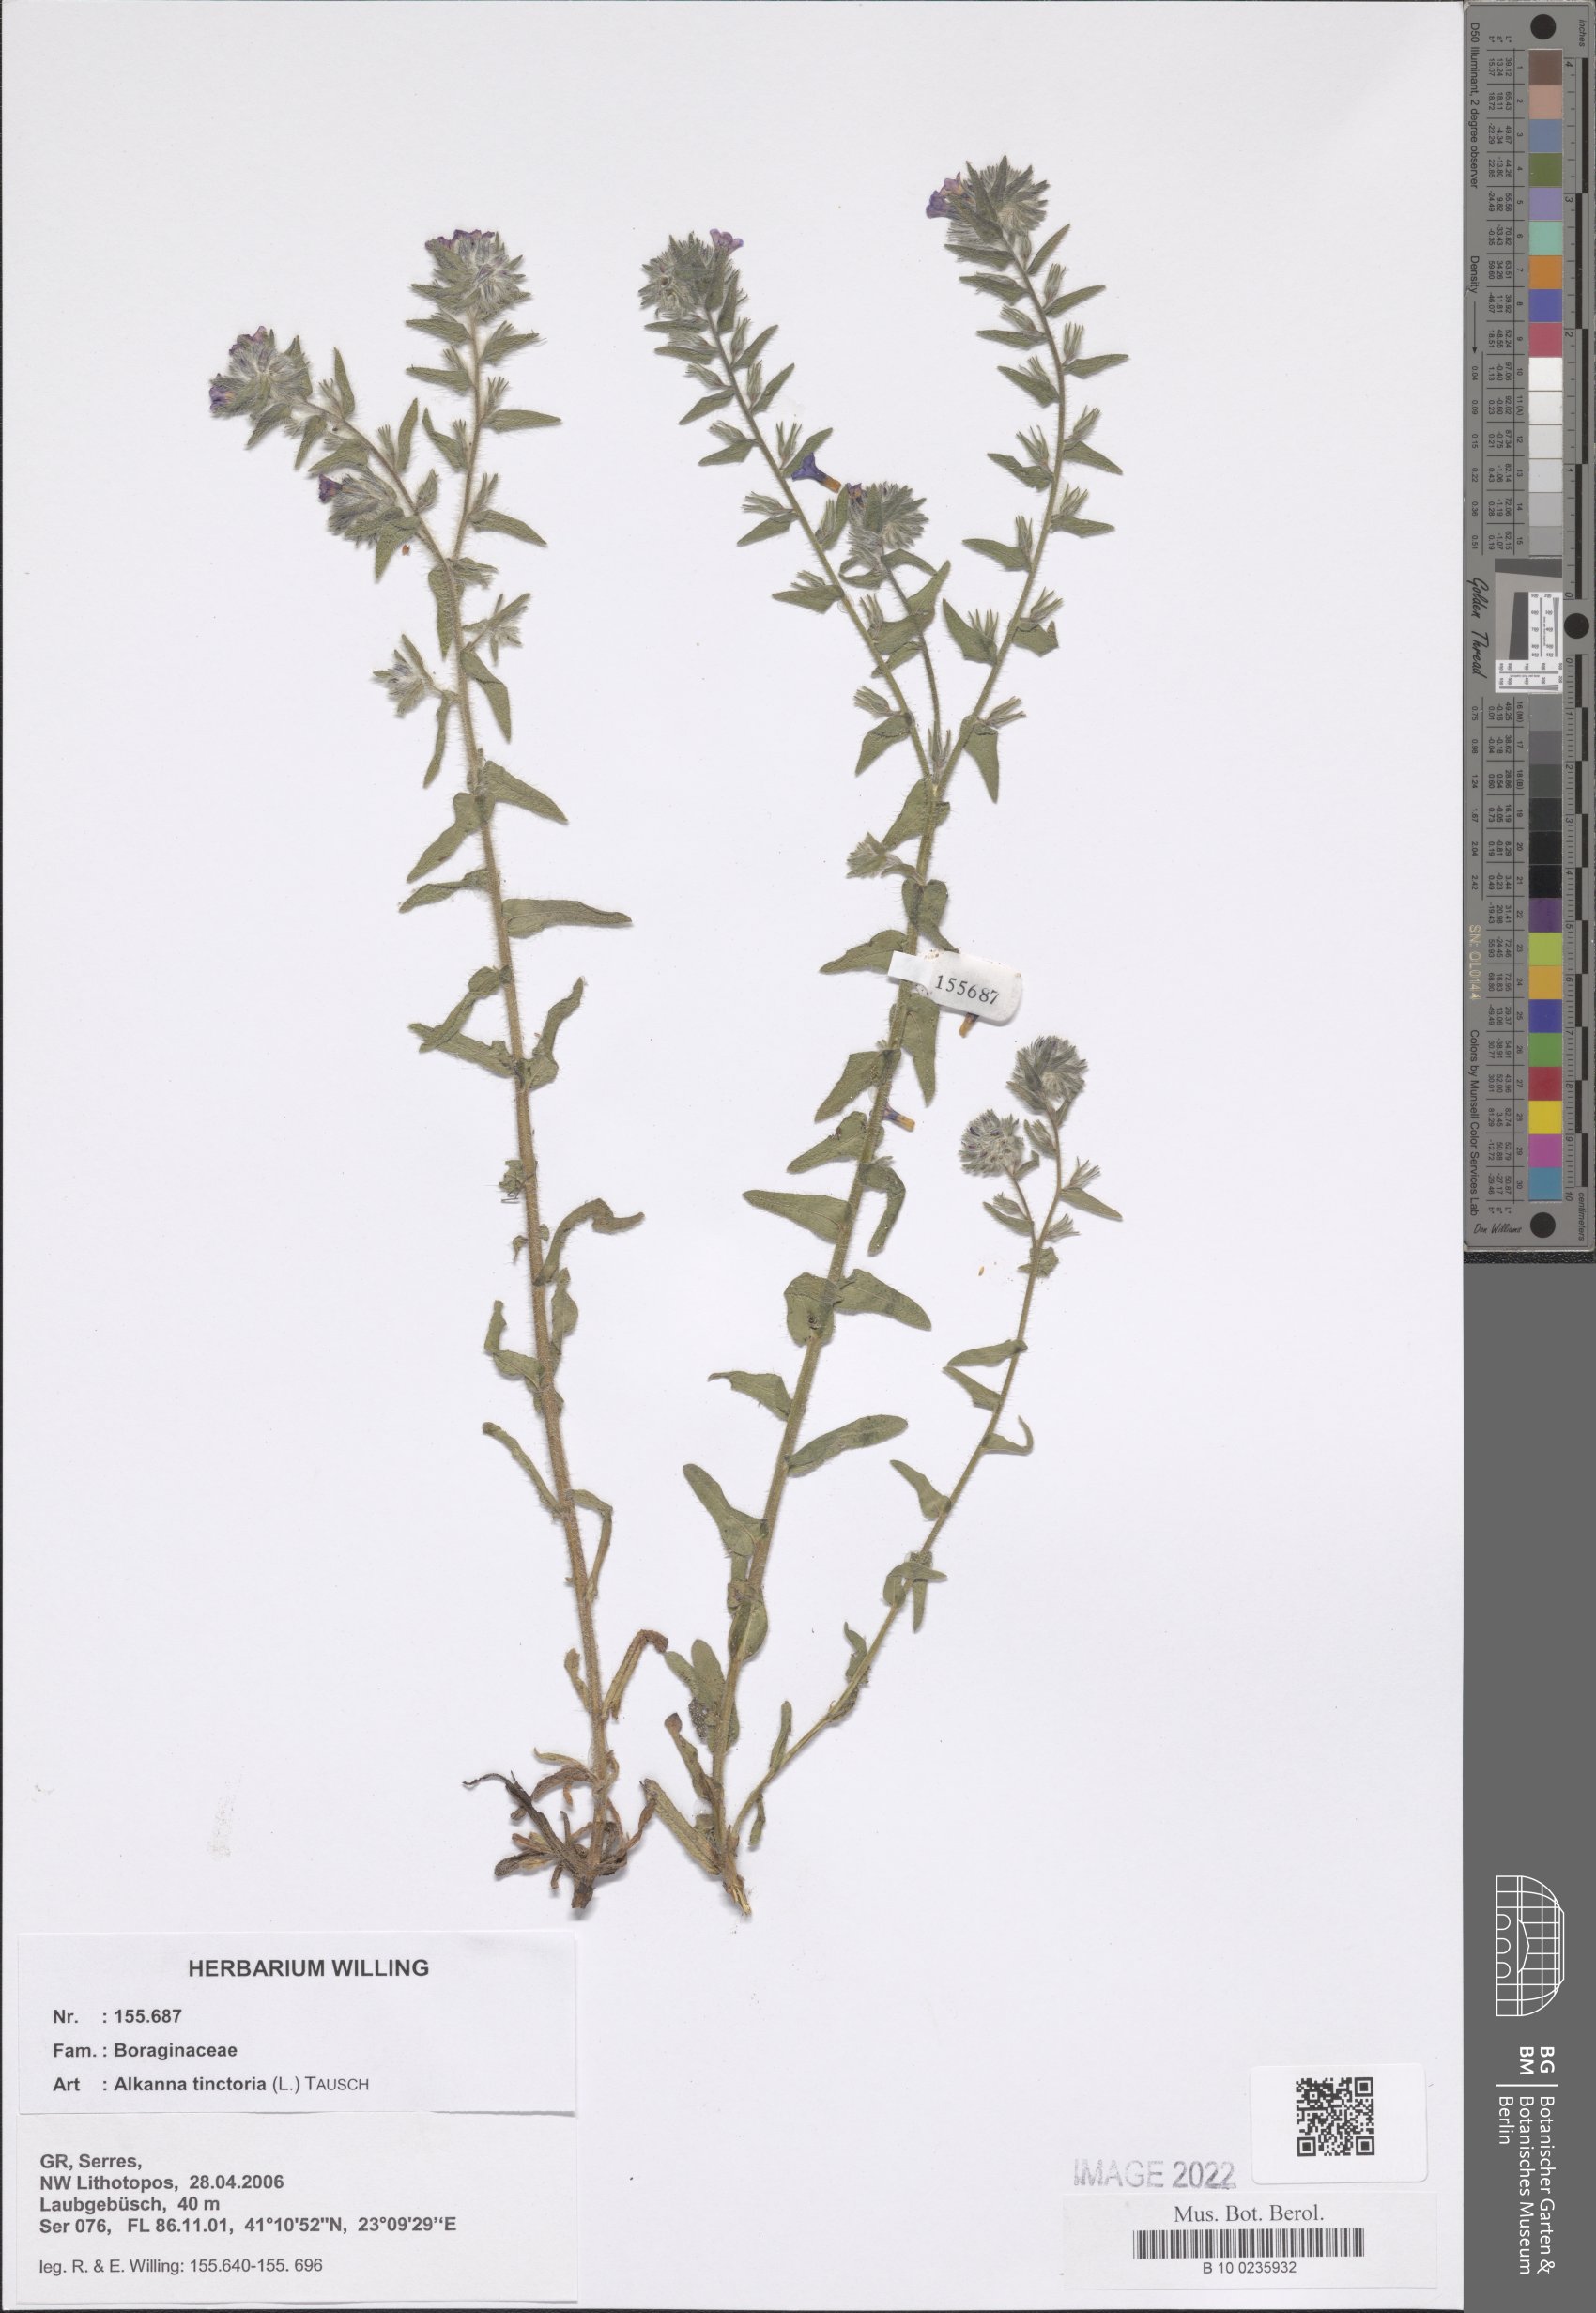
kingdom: Plantae
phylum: Tracheophyta
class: Magnoliopsida
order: Boraginales
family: Boraginaceae
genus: Alkanna
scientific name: Alkanna tinctoria
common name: Dyer's-alkanet
